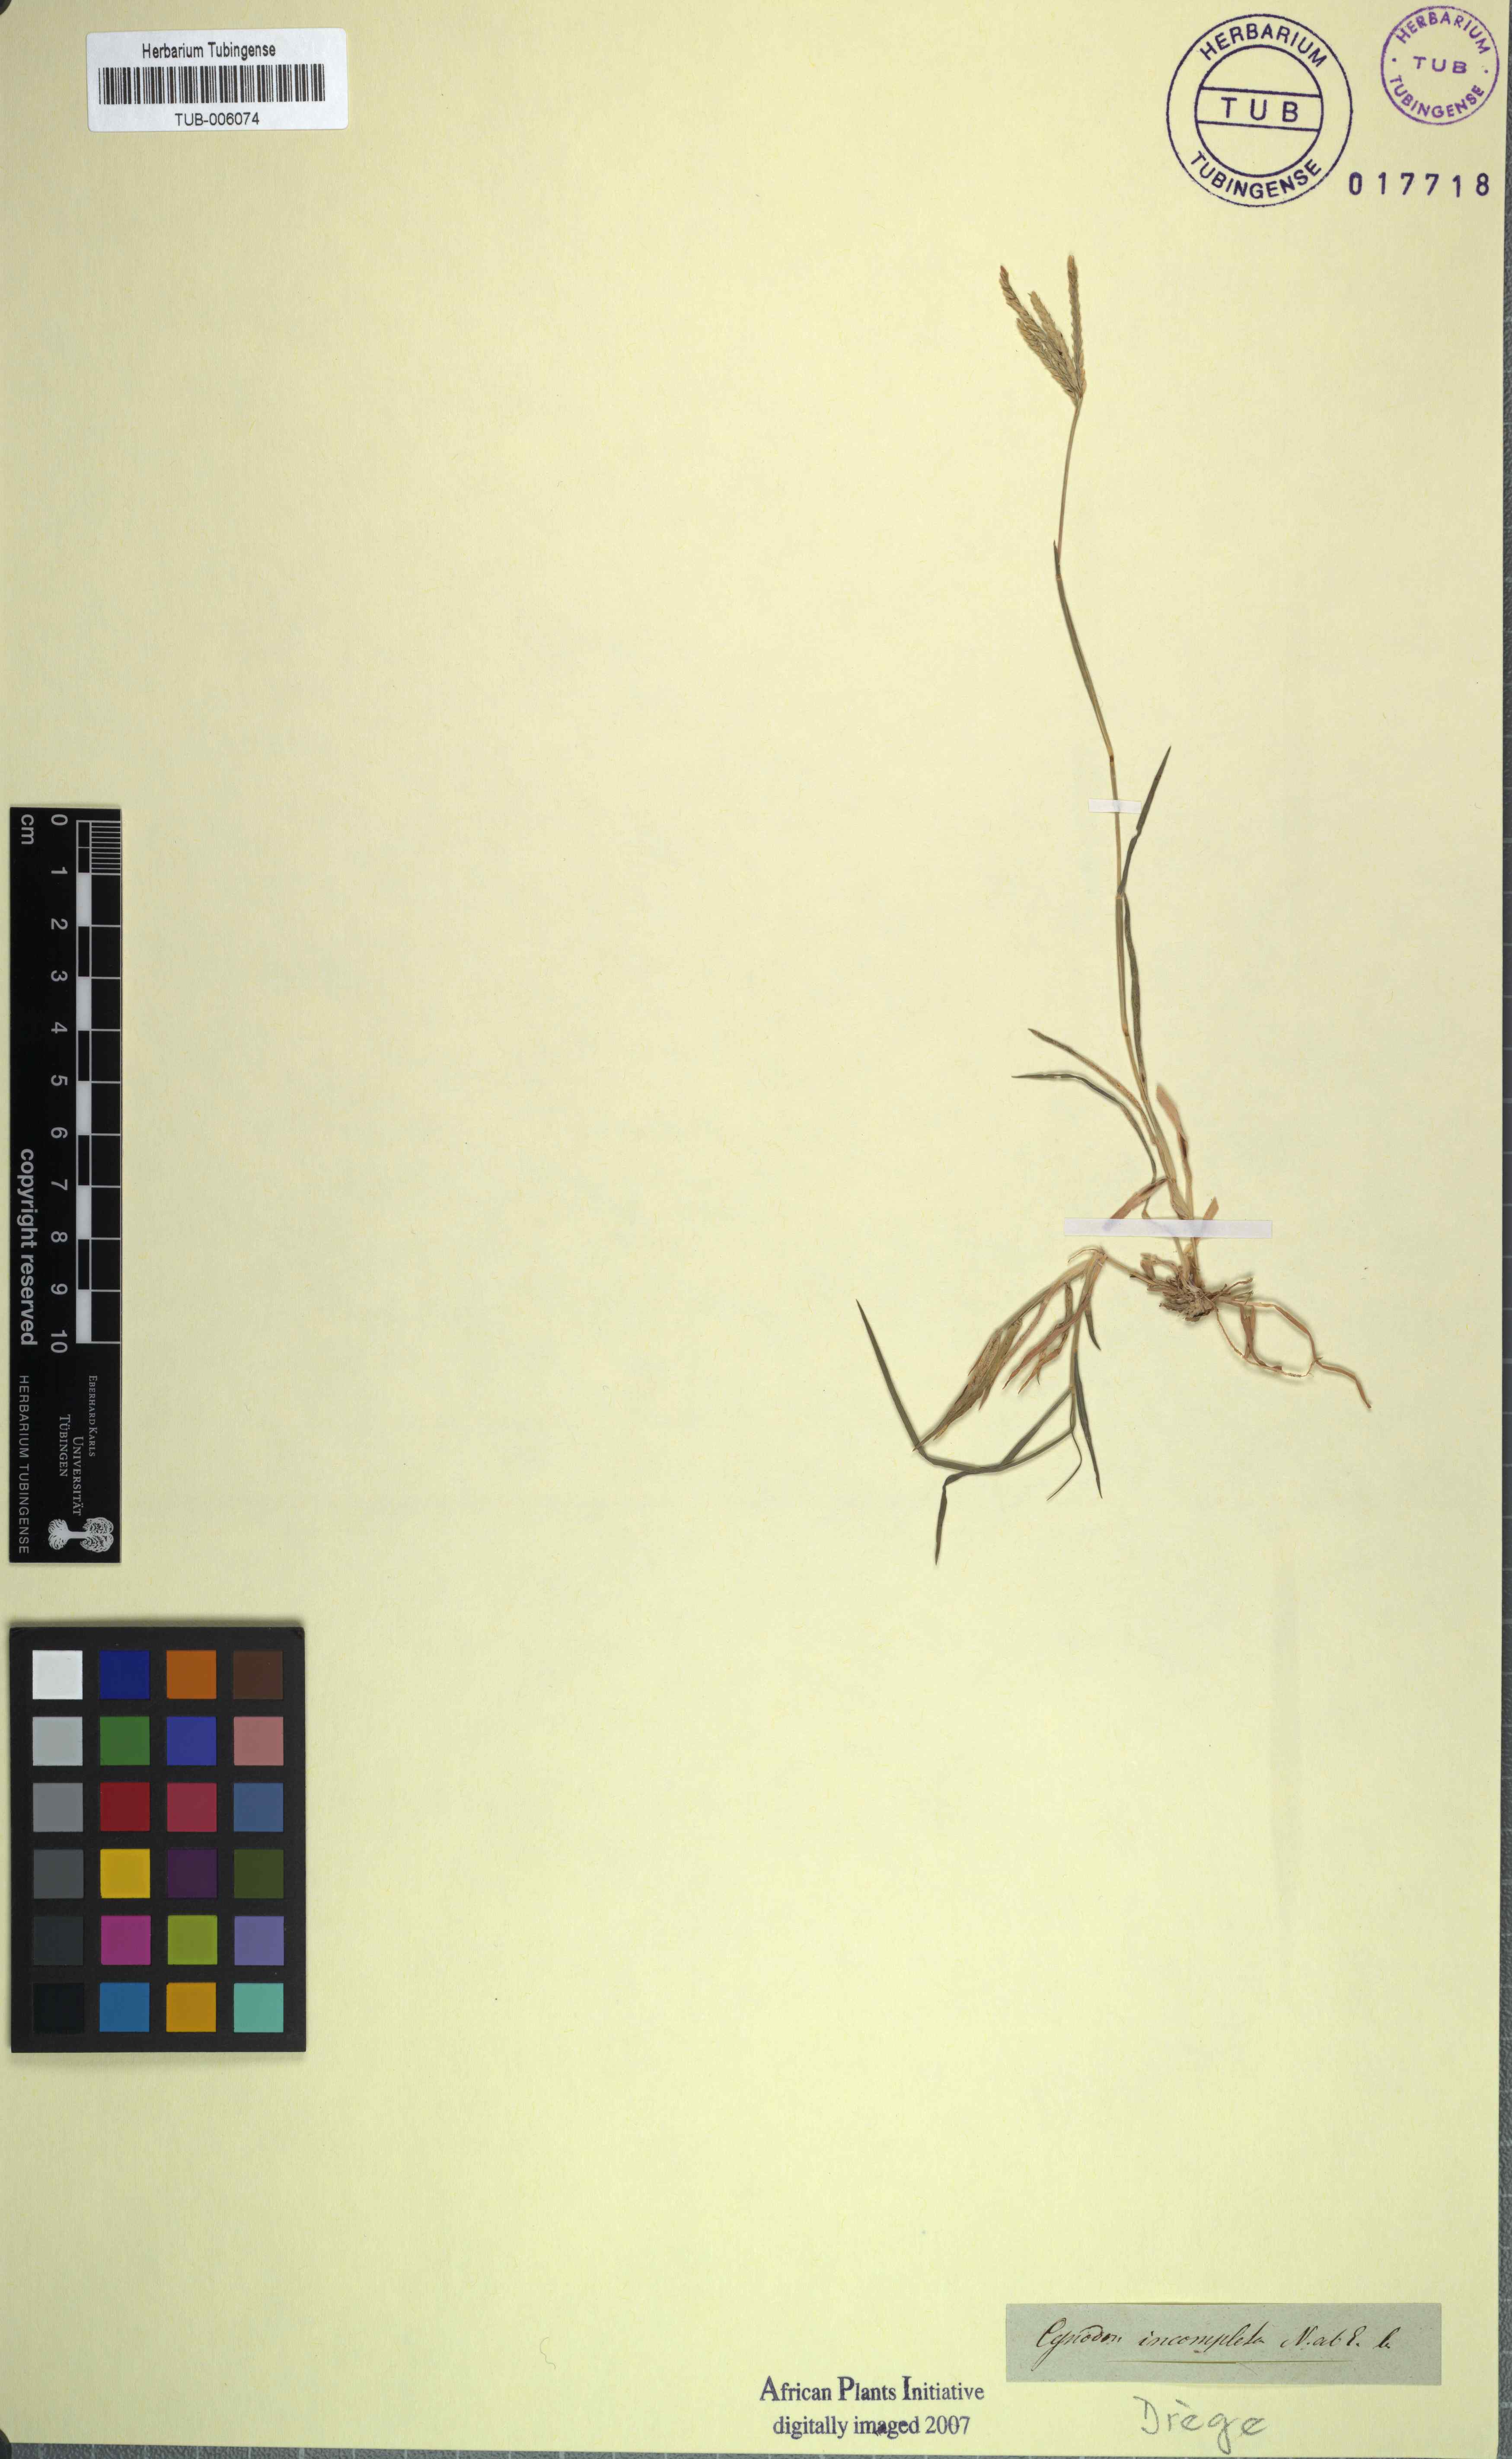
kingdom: Plantae
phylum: Tracheophyta
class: Liliopsida
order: Poales
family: Poaceae
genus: Cynodon
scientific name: Cynodon incompletus
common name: African bermuda-grass
